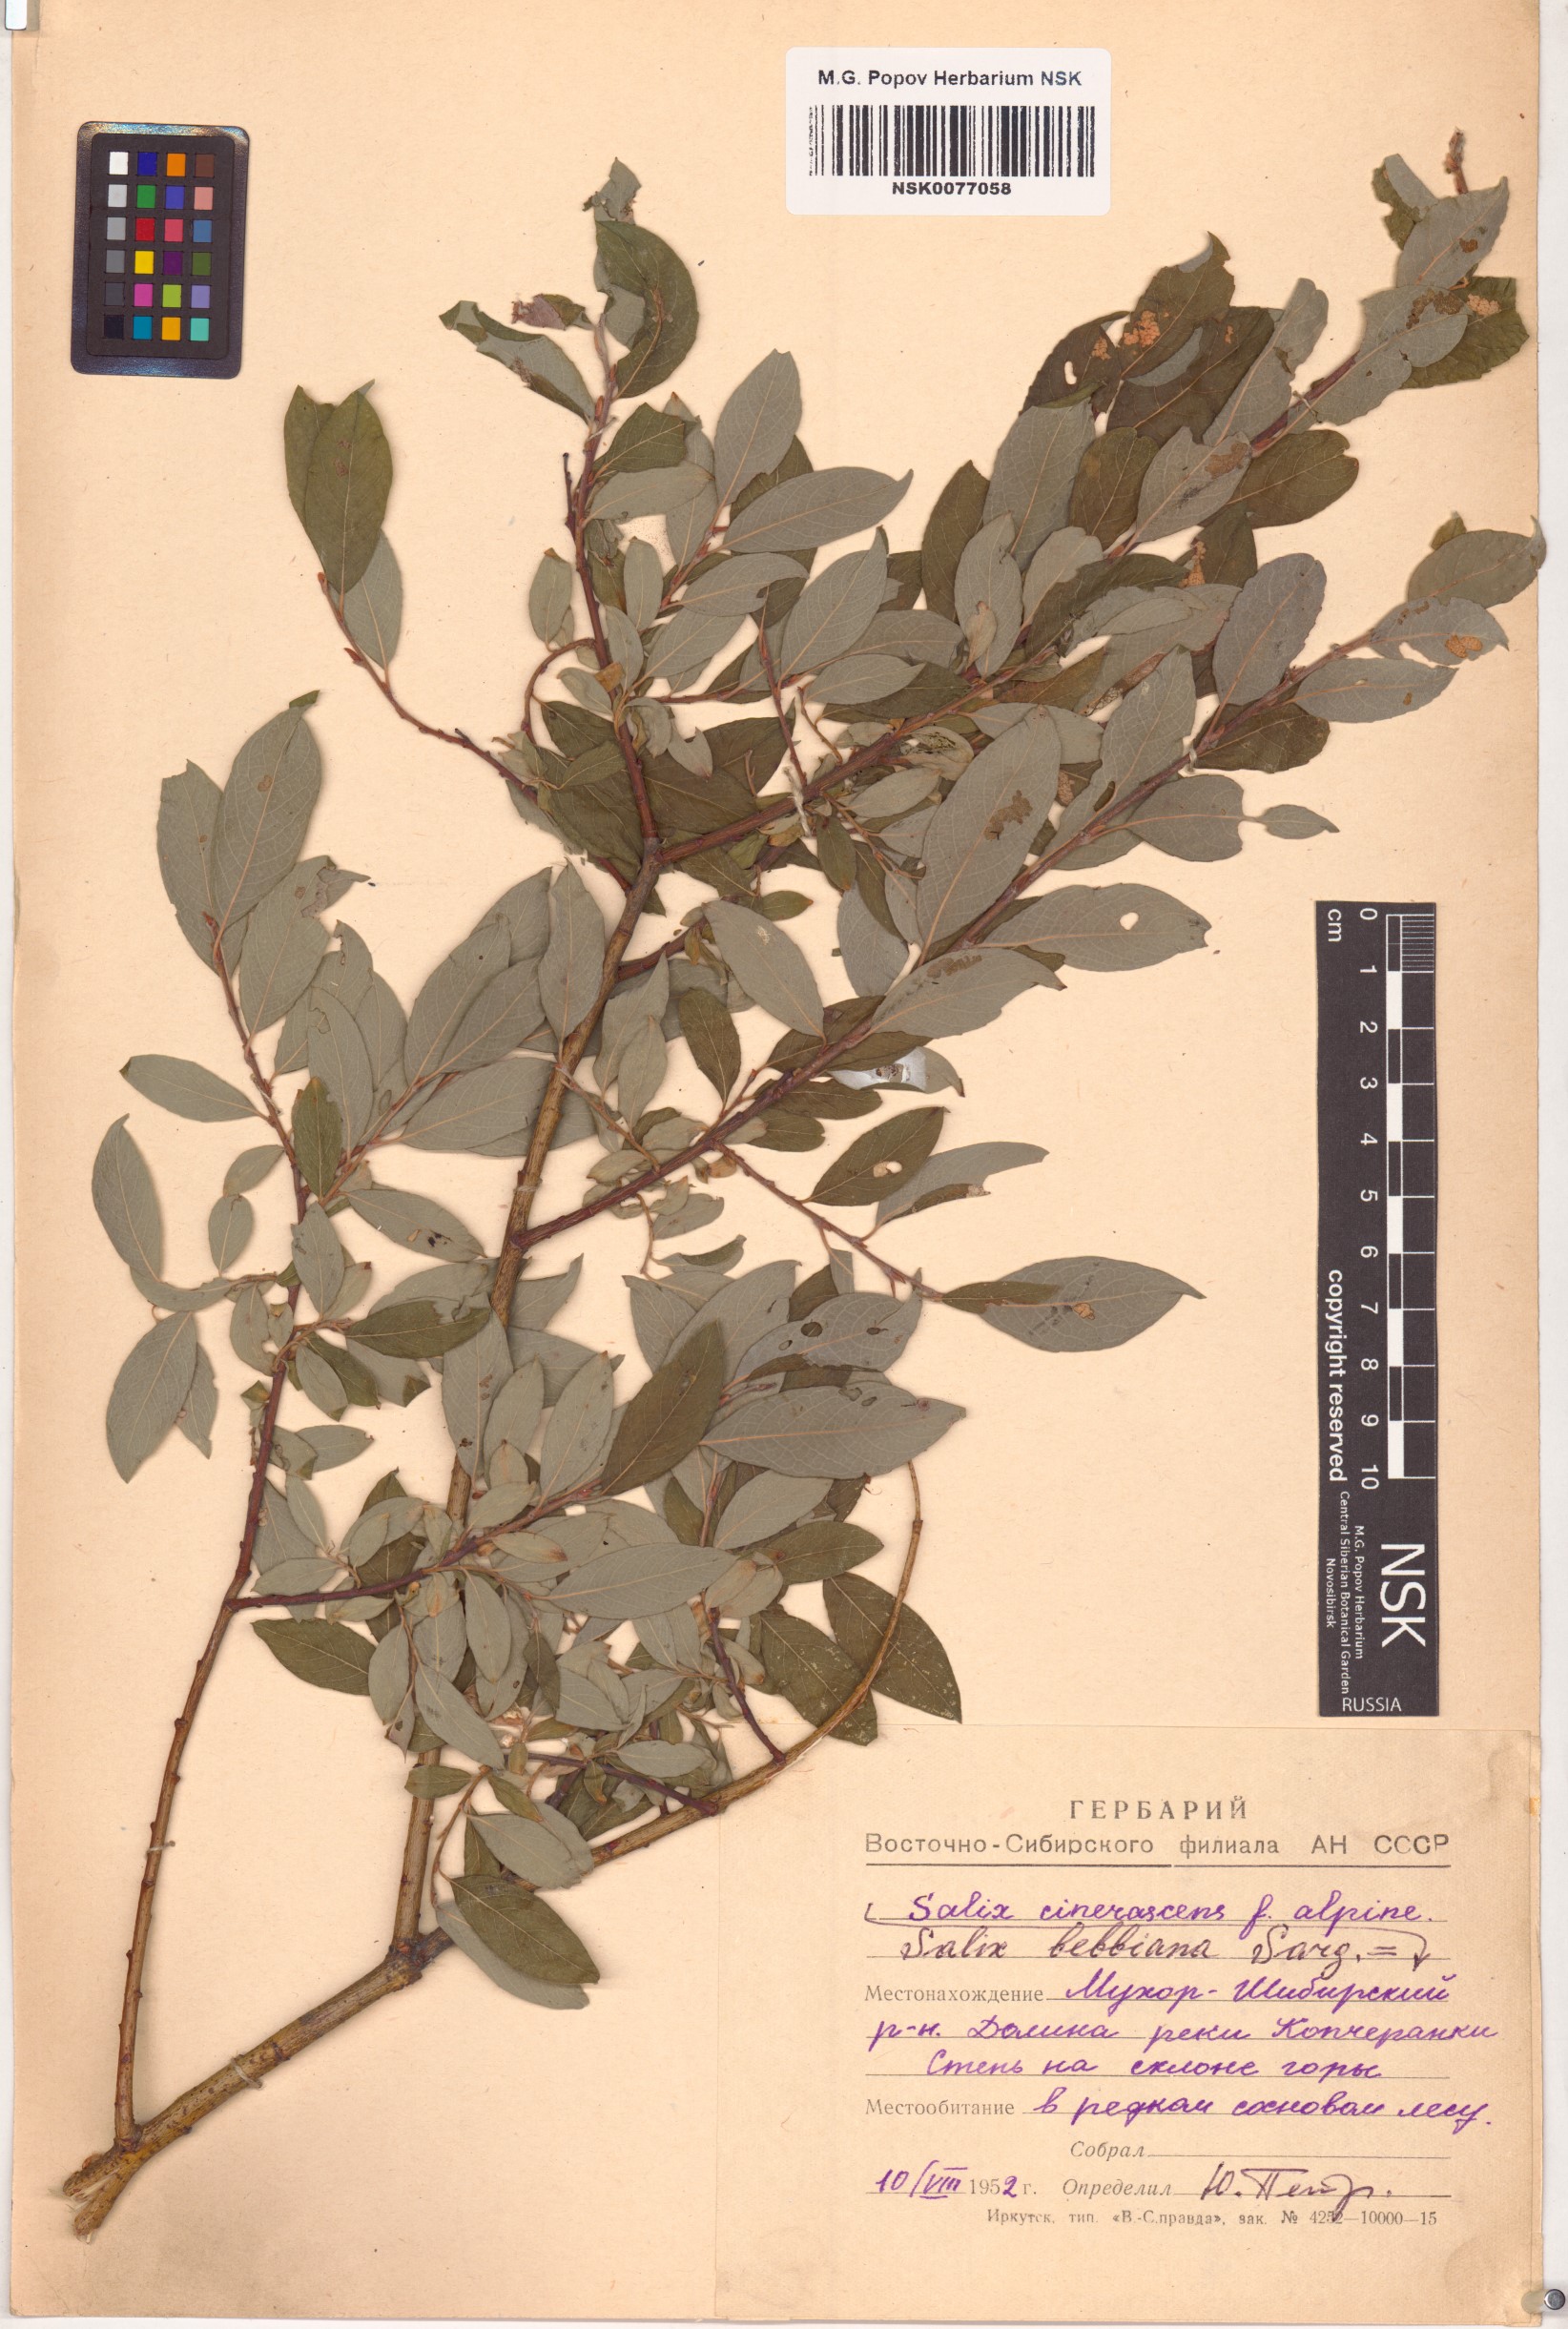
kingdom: Plantae
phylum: Tracheophyta
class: Magnoliopsida
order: Malpighiales
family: Salicaceae
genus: Salix
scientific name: Salix bebbiana
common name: Bebb's willow
